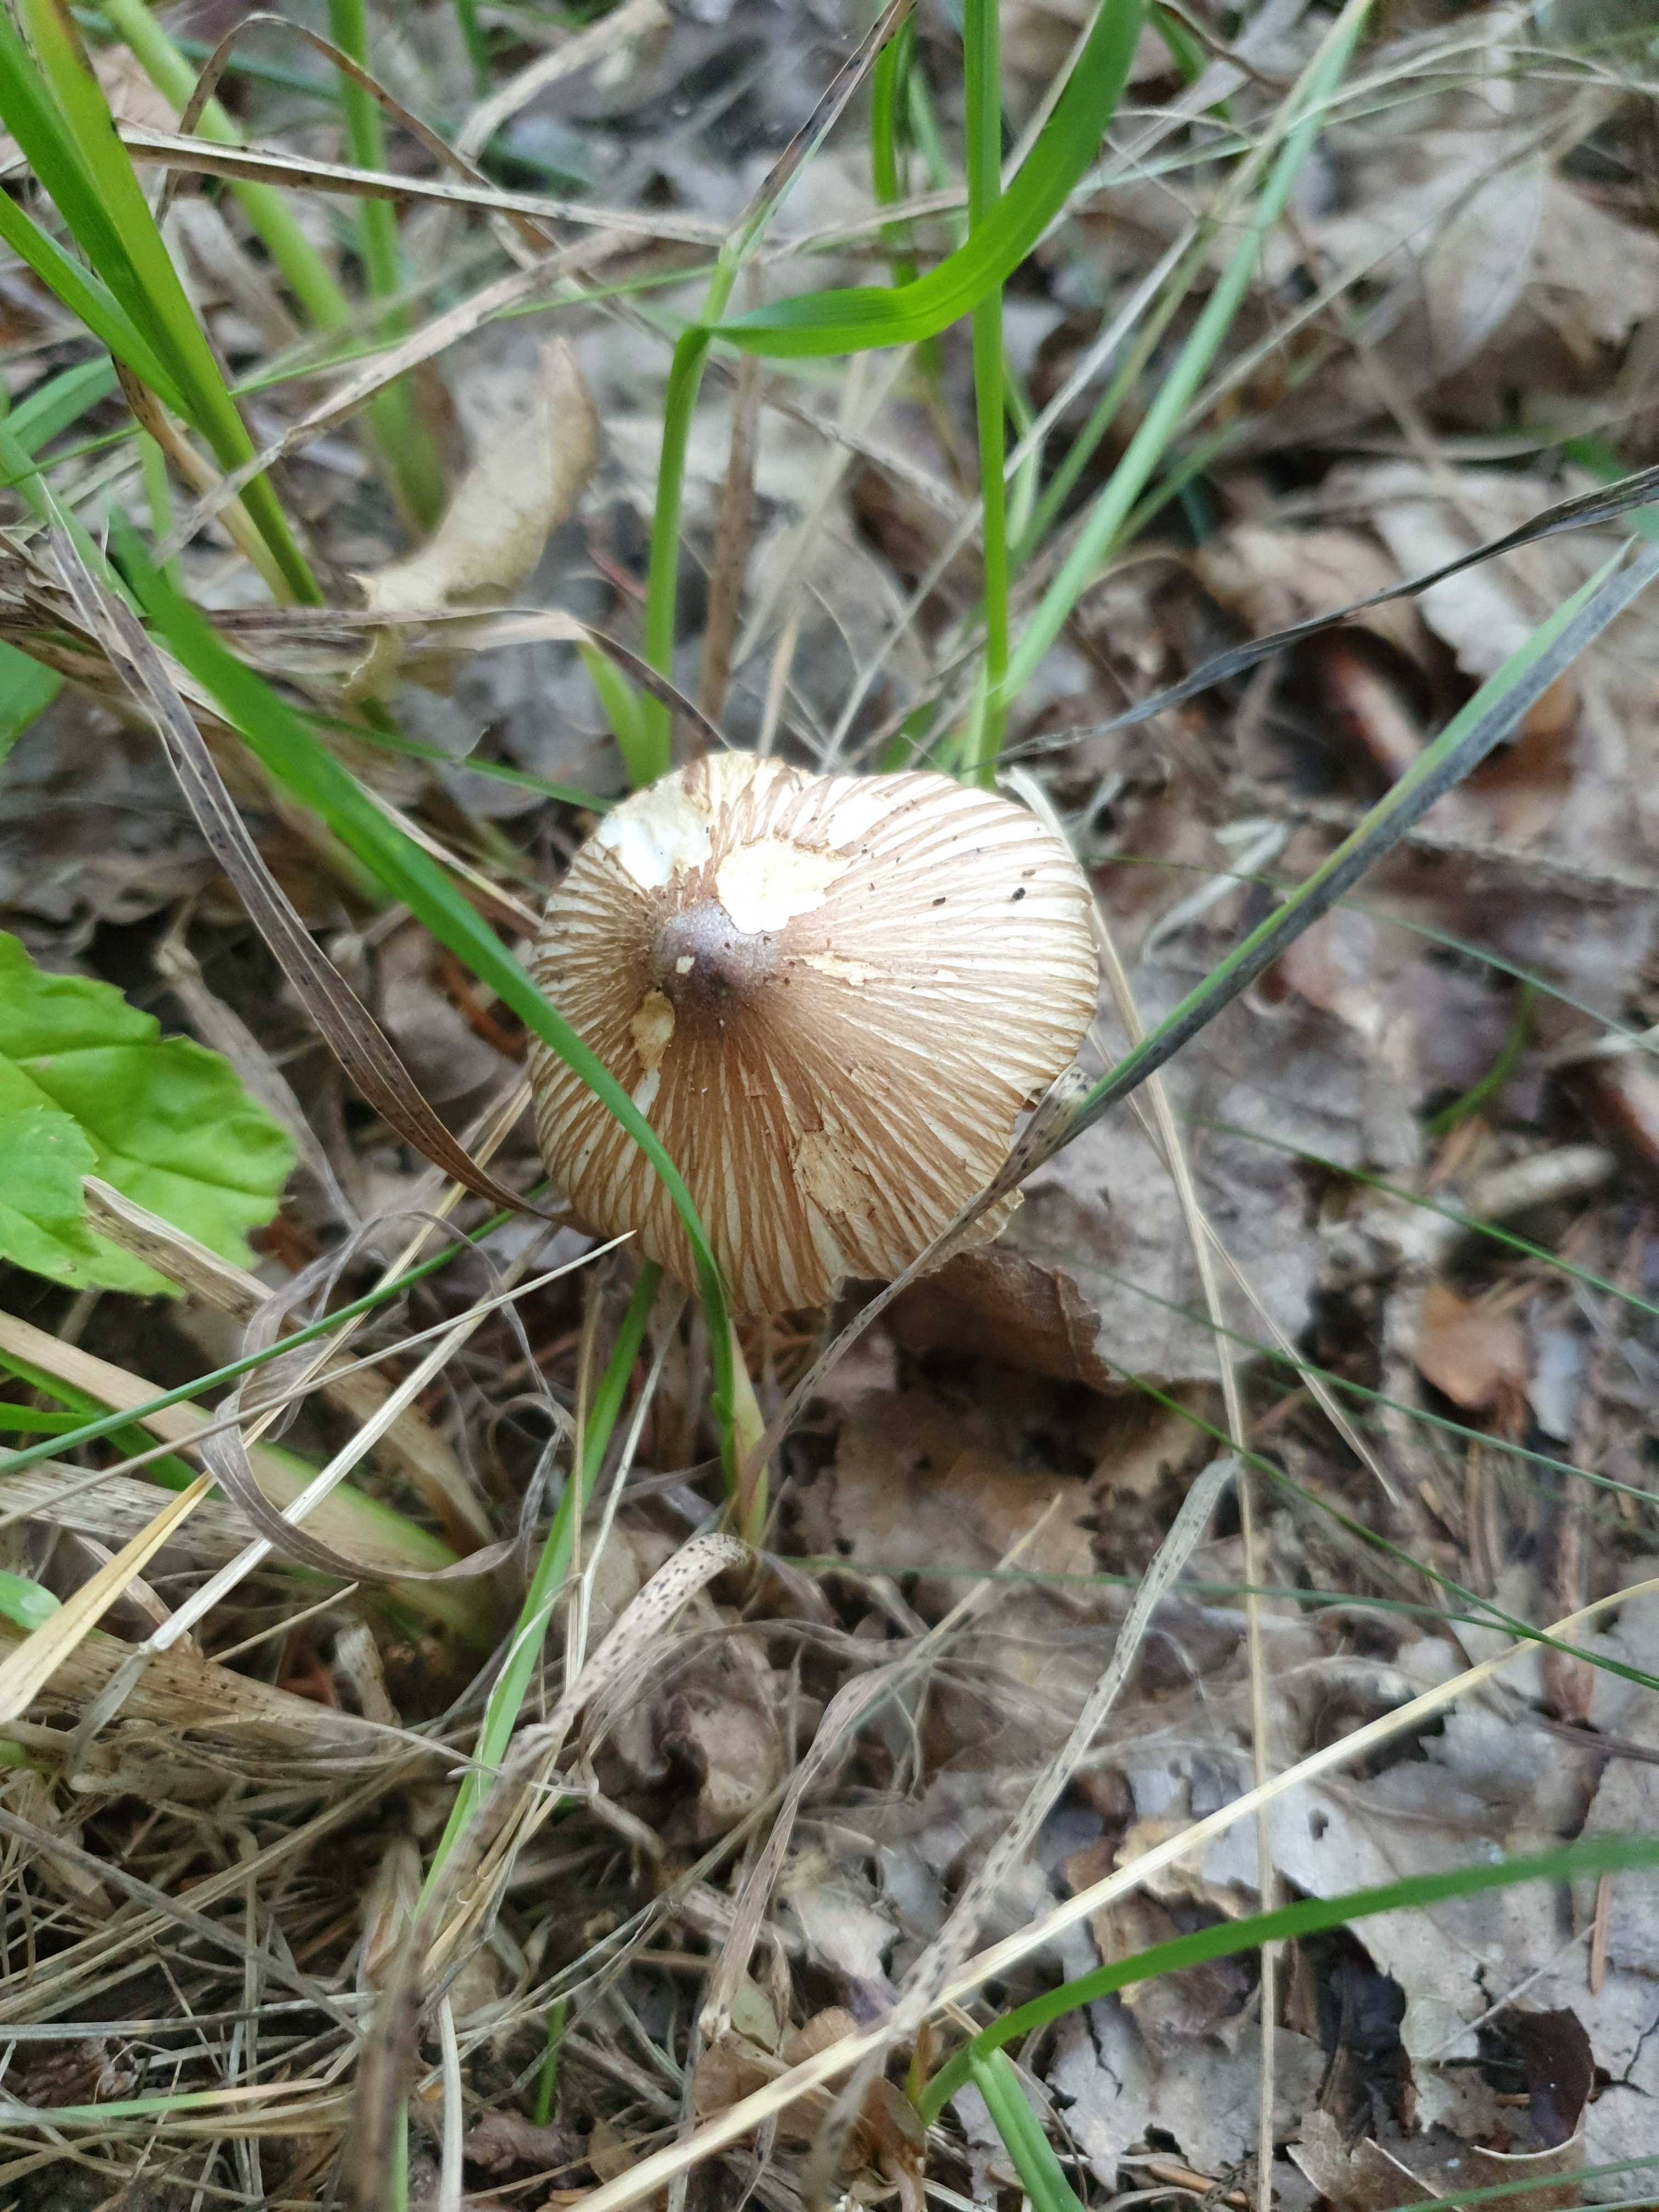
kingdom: Fungi
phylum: Basidiomycota
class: Agaricomycetes
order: Agaricales
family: Inocybaceae
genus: Pseudosperma
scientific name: Pseudosperma
